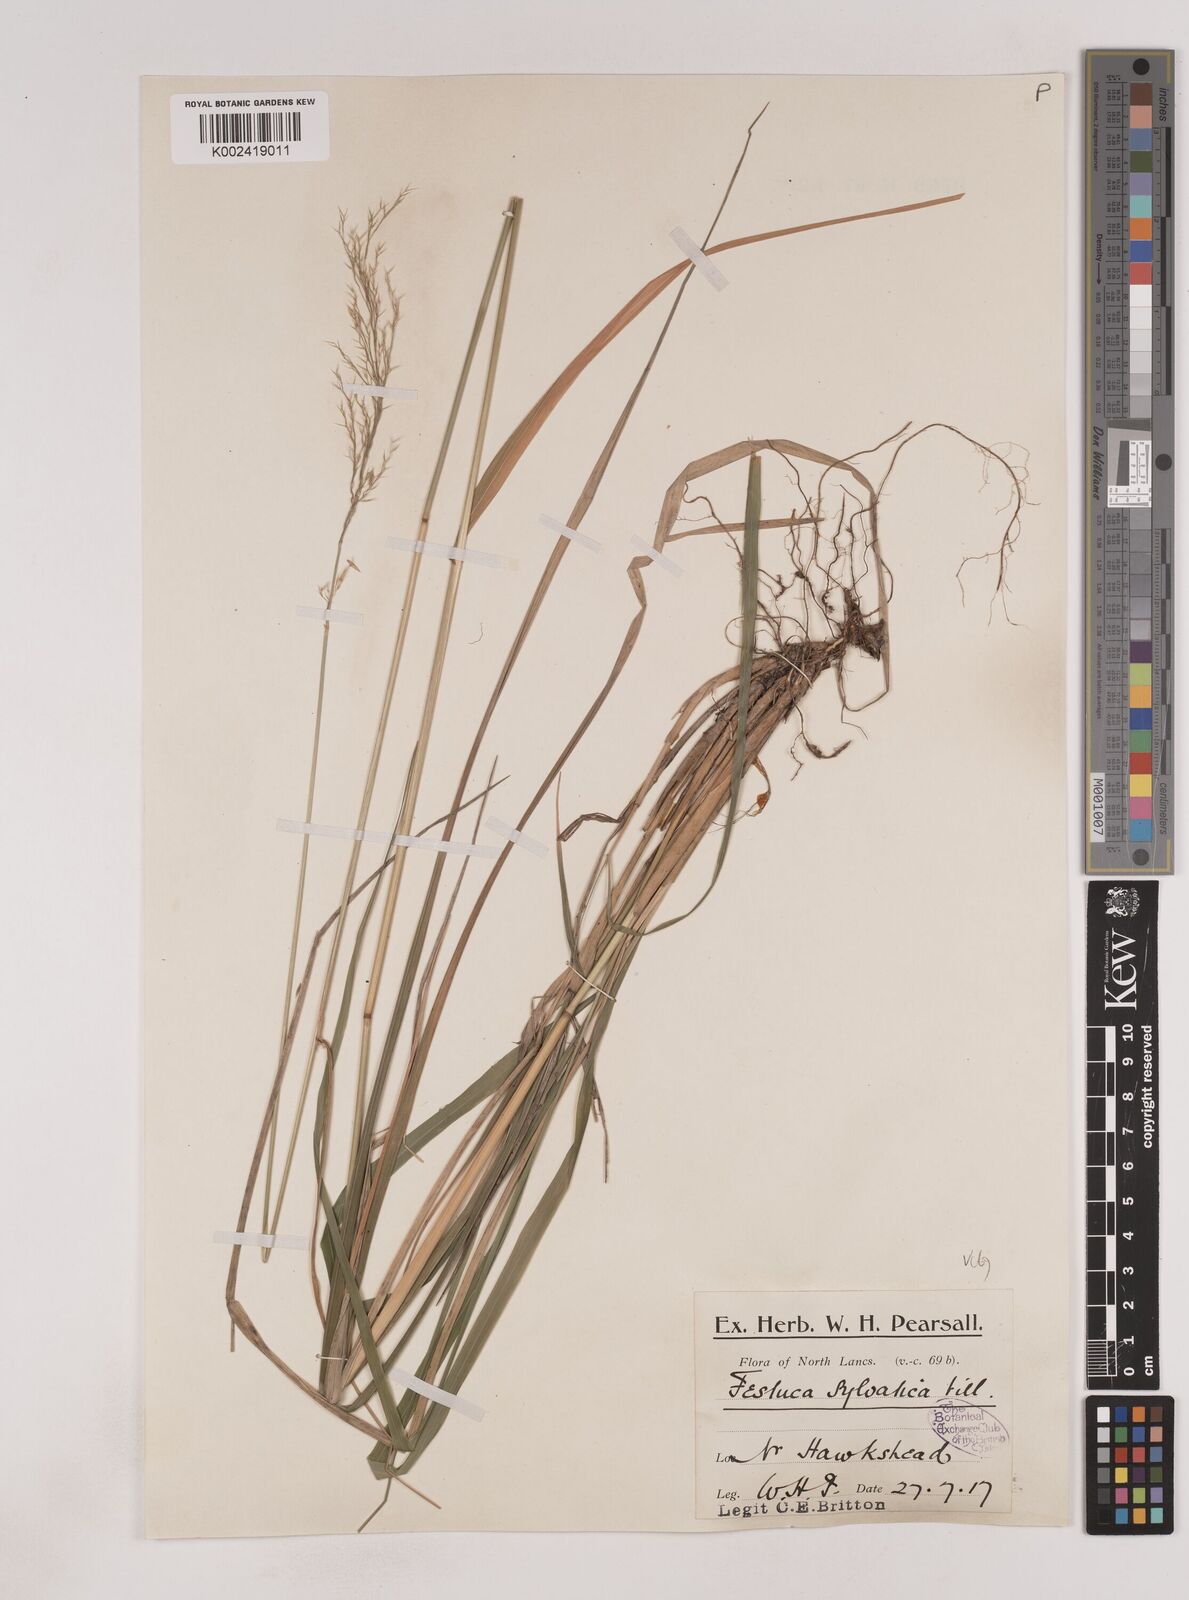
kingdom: Plantae
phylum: Tracheophyta
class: Liliopsida
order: Poales
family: Poaceae
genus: Festuca
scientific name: Festuca drymeja
